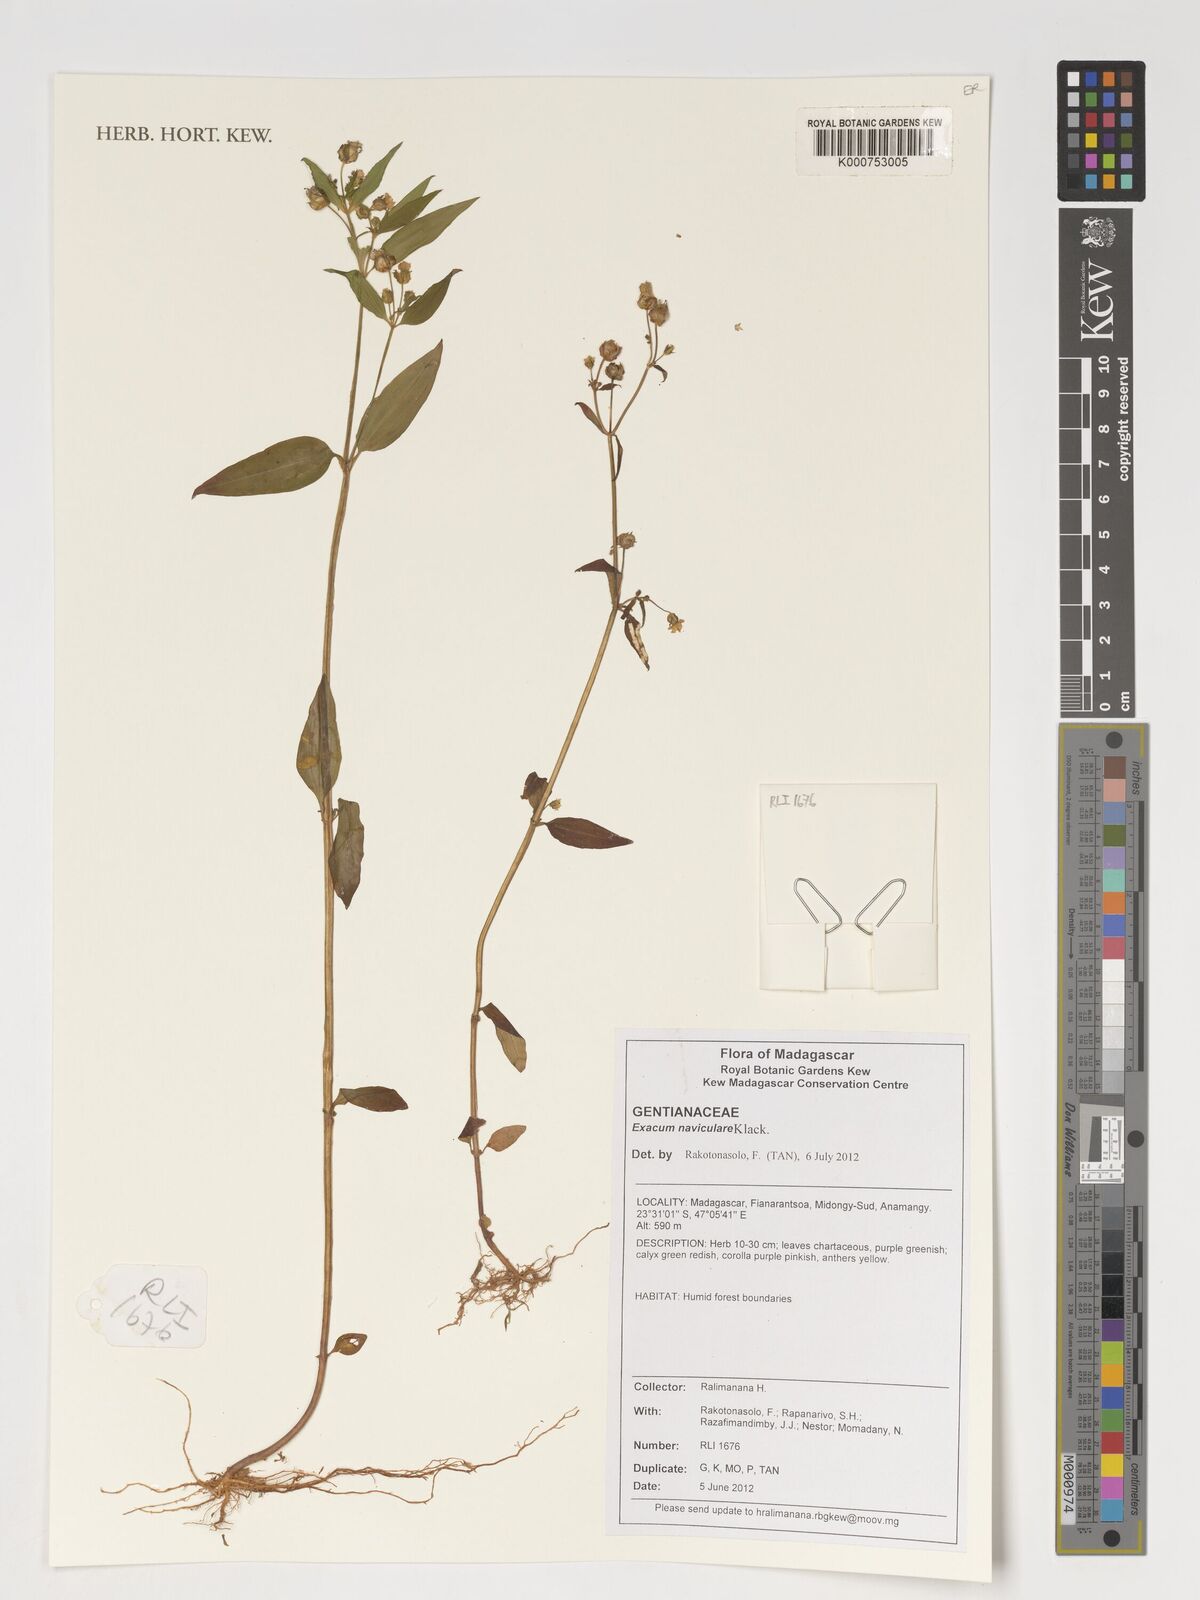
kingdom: Plantae
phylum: Tracheophyta
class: Magnoliopsida
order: Gentianales
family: Gentianaceae
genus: Exacum
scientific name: Exacum naviculare
